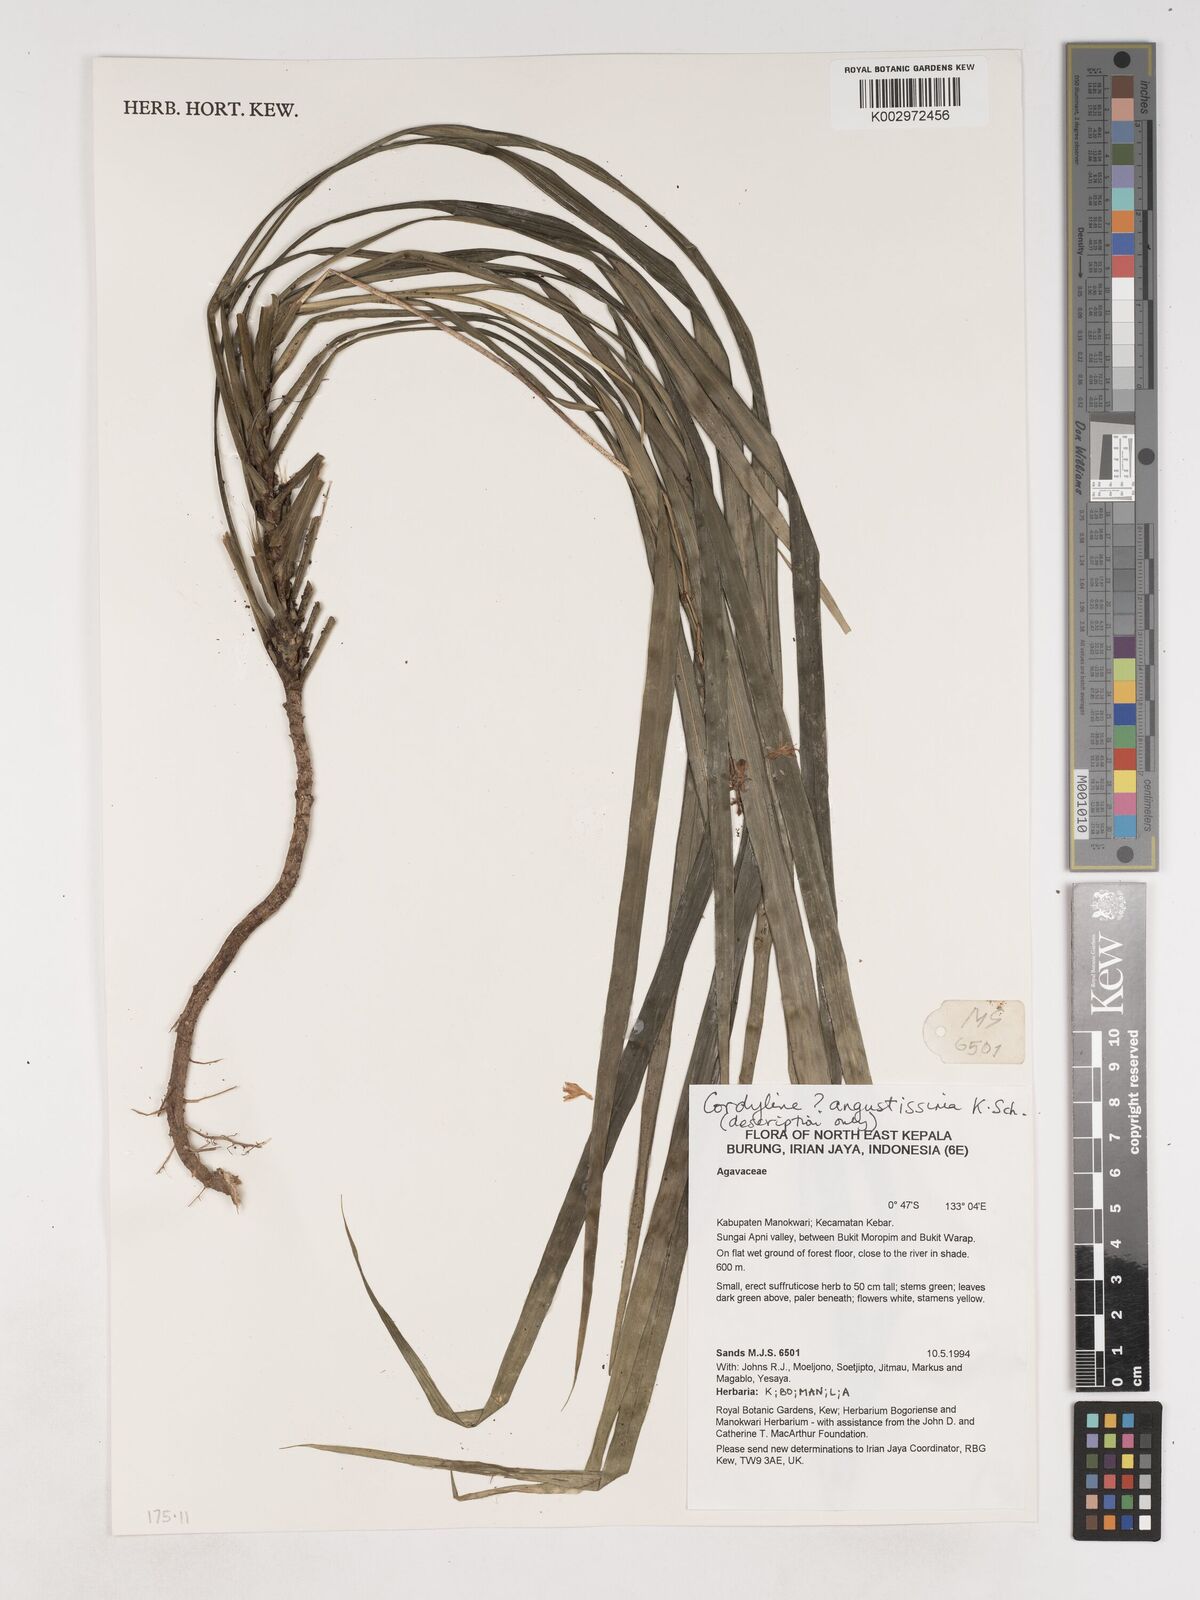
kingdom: Plantae
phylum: Tracheophyta
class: Liliopsida
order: Asparagales
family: Asparagaceae
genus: Cordyline
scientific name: Cordyline angustissima
